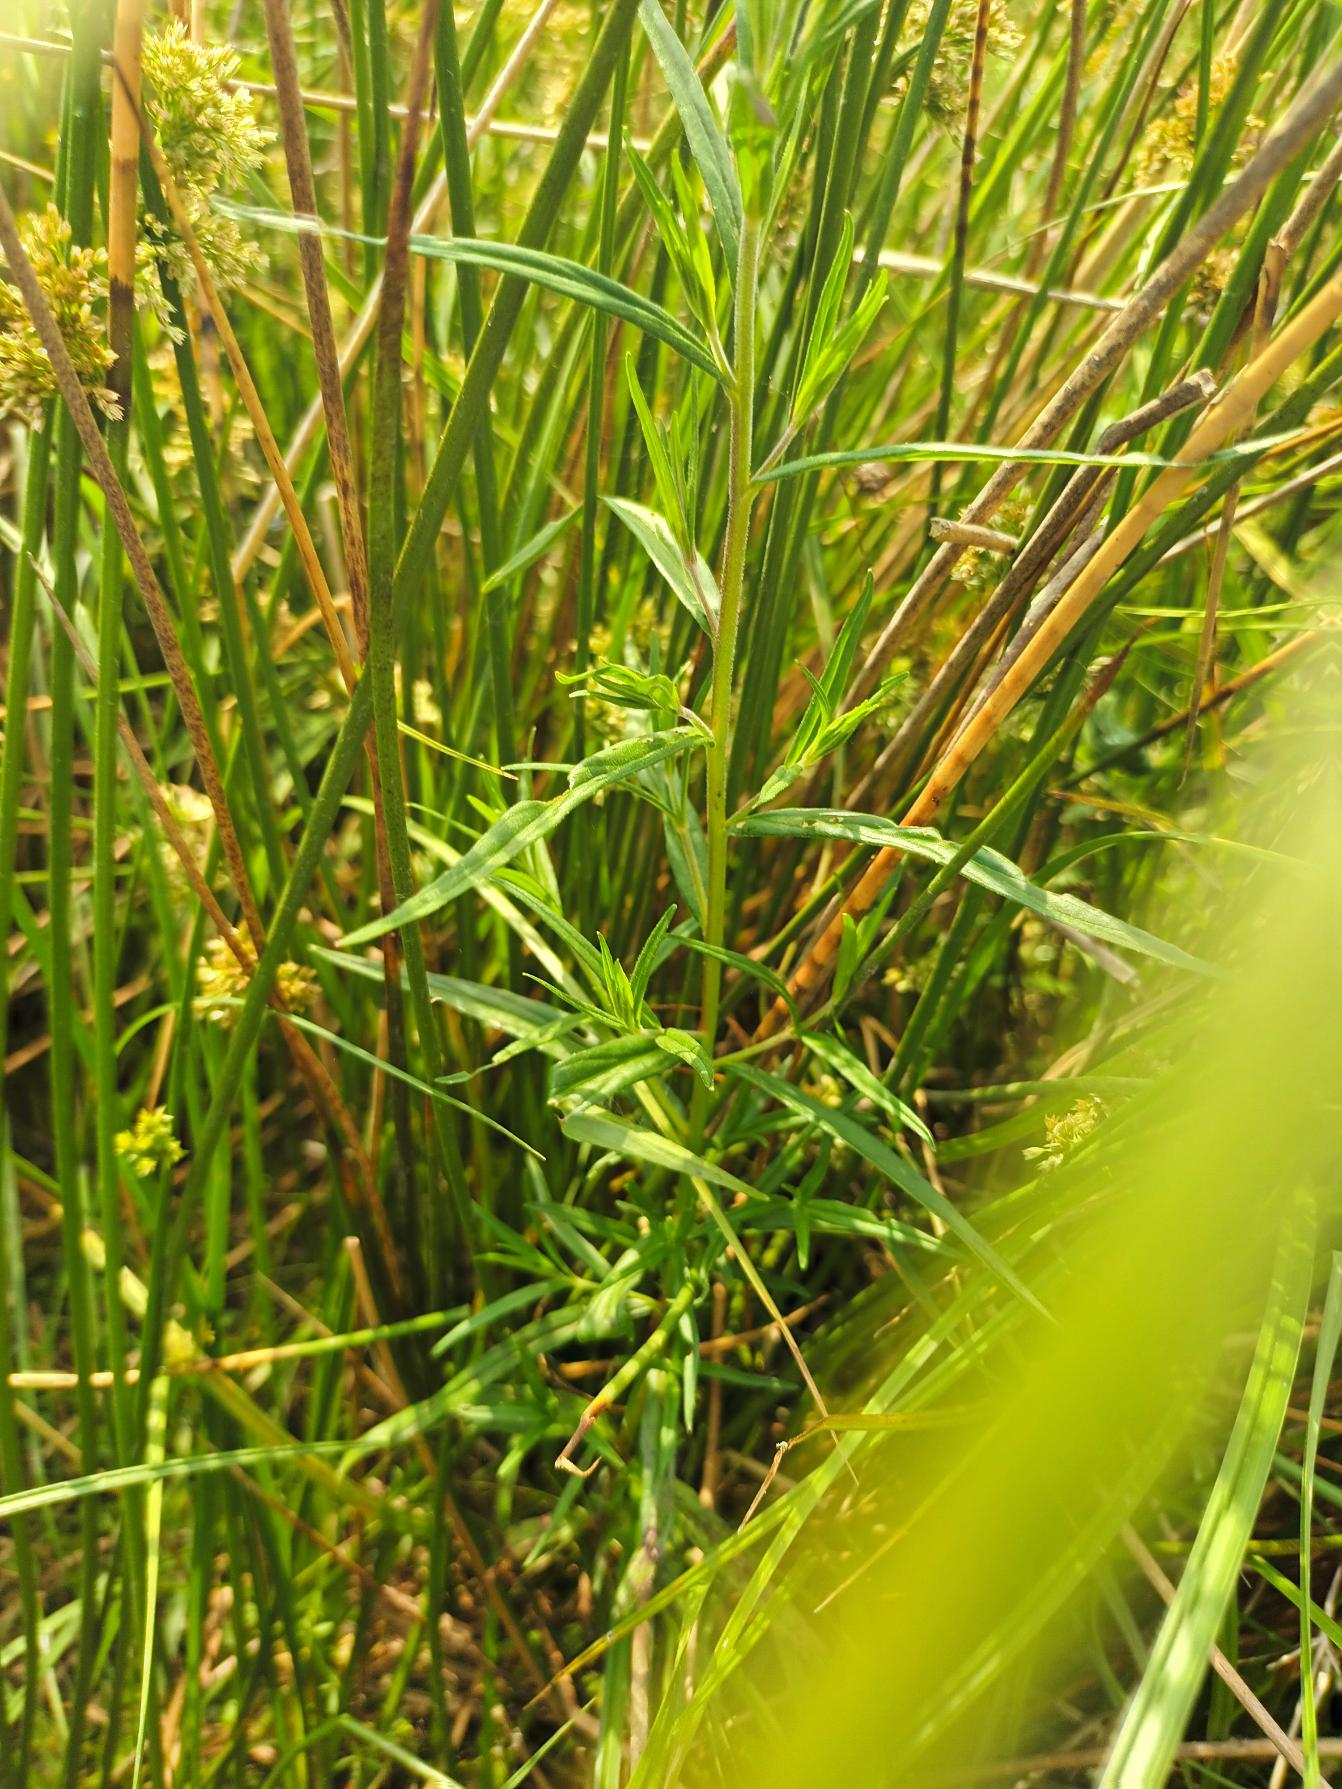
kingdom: Plantae
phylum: Tracheophyta
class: Magnoliopsida
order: Myrtales
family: Onagraceae
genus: Epilobium
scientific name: Epilobium palustre
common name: Kær-dueurt
